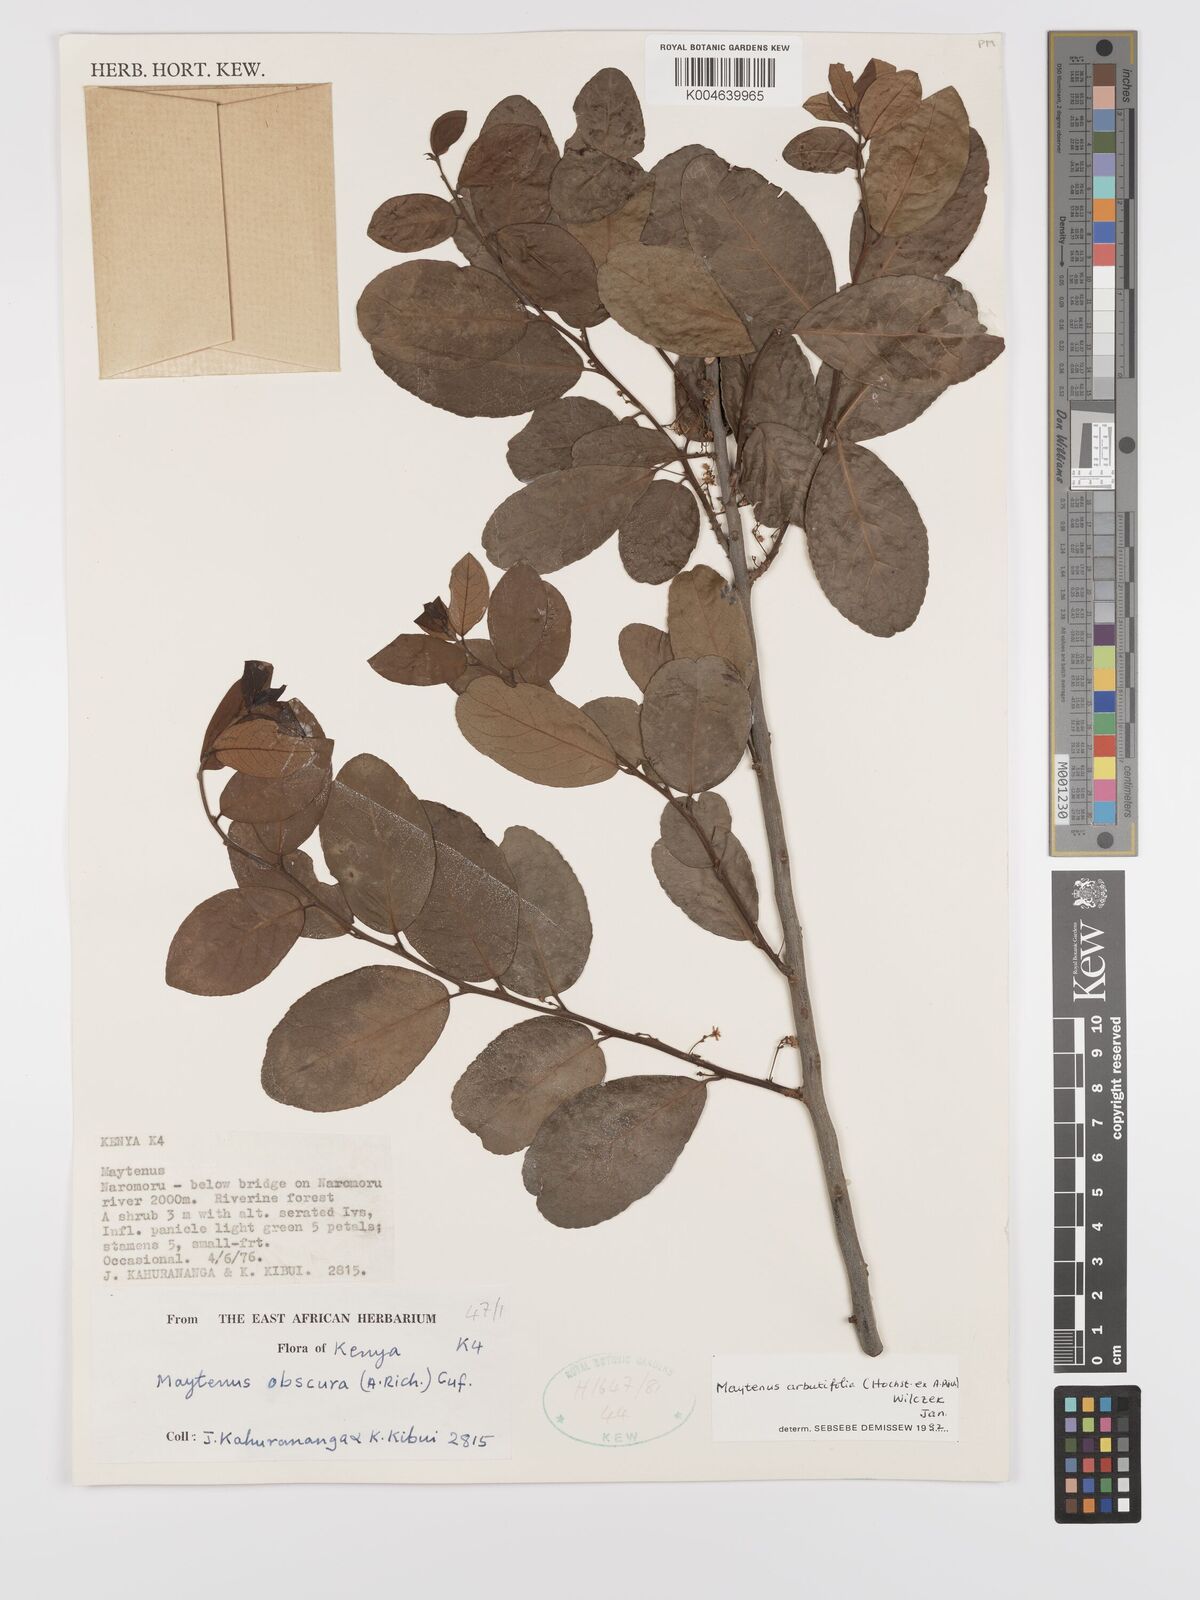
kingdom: Plantae
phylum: Tracheophyta
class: Magnoliopsida
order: Celastrales
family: Celastraceae
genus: Gymnosporia
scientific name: Gymnosporia
